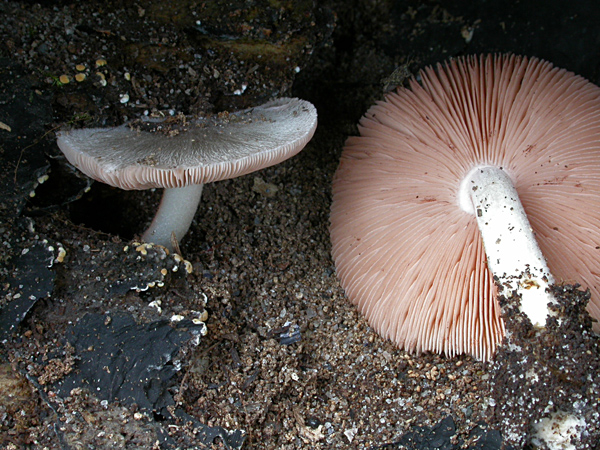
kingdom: Fungi
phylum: Basidiomycota
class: Agaricomycetes
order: Agaricales
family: Pluteaceae
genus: Volvariella
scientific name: Volvariella caesiotincta
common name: ved-posesvamp
